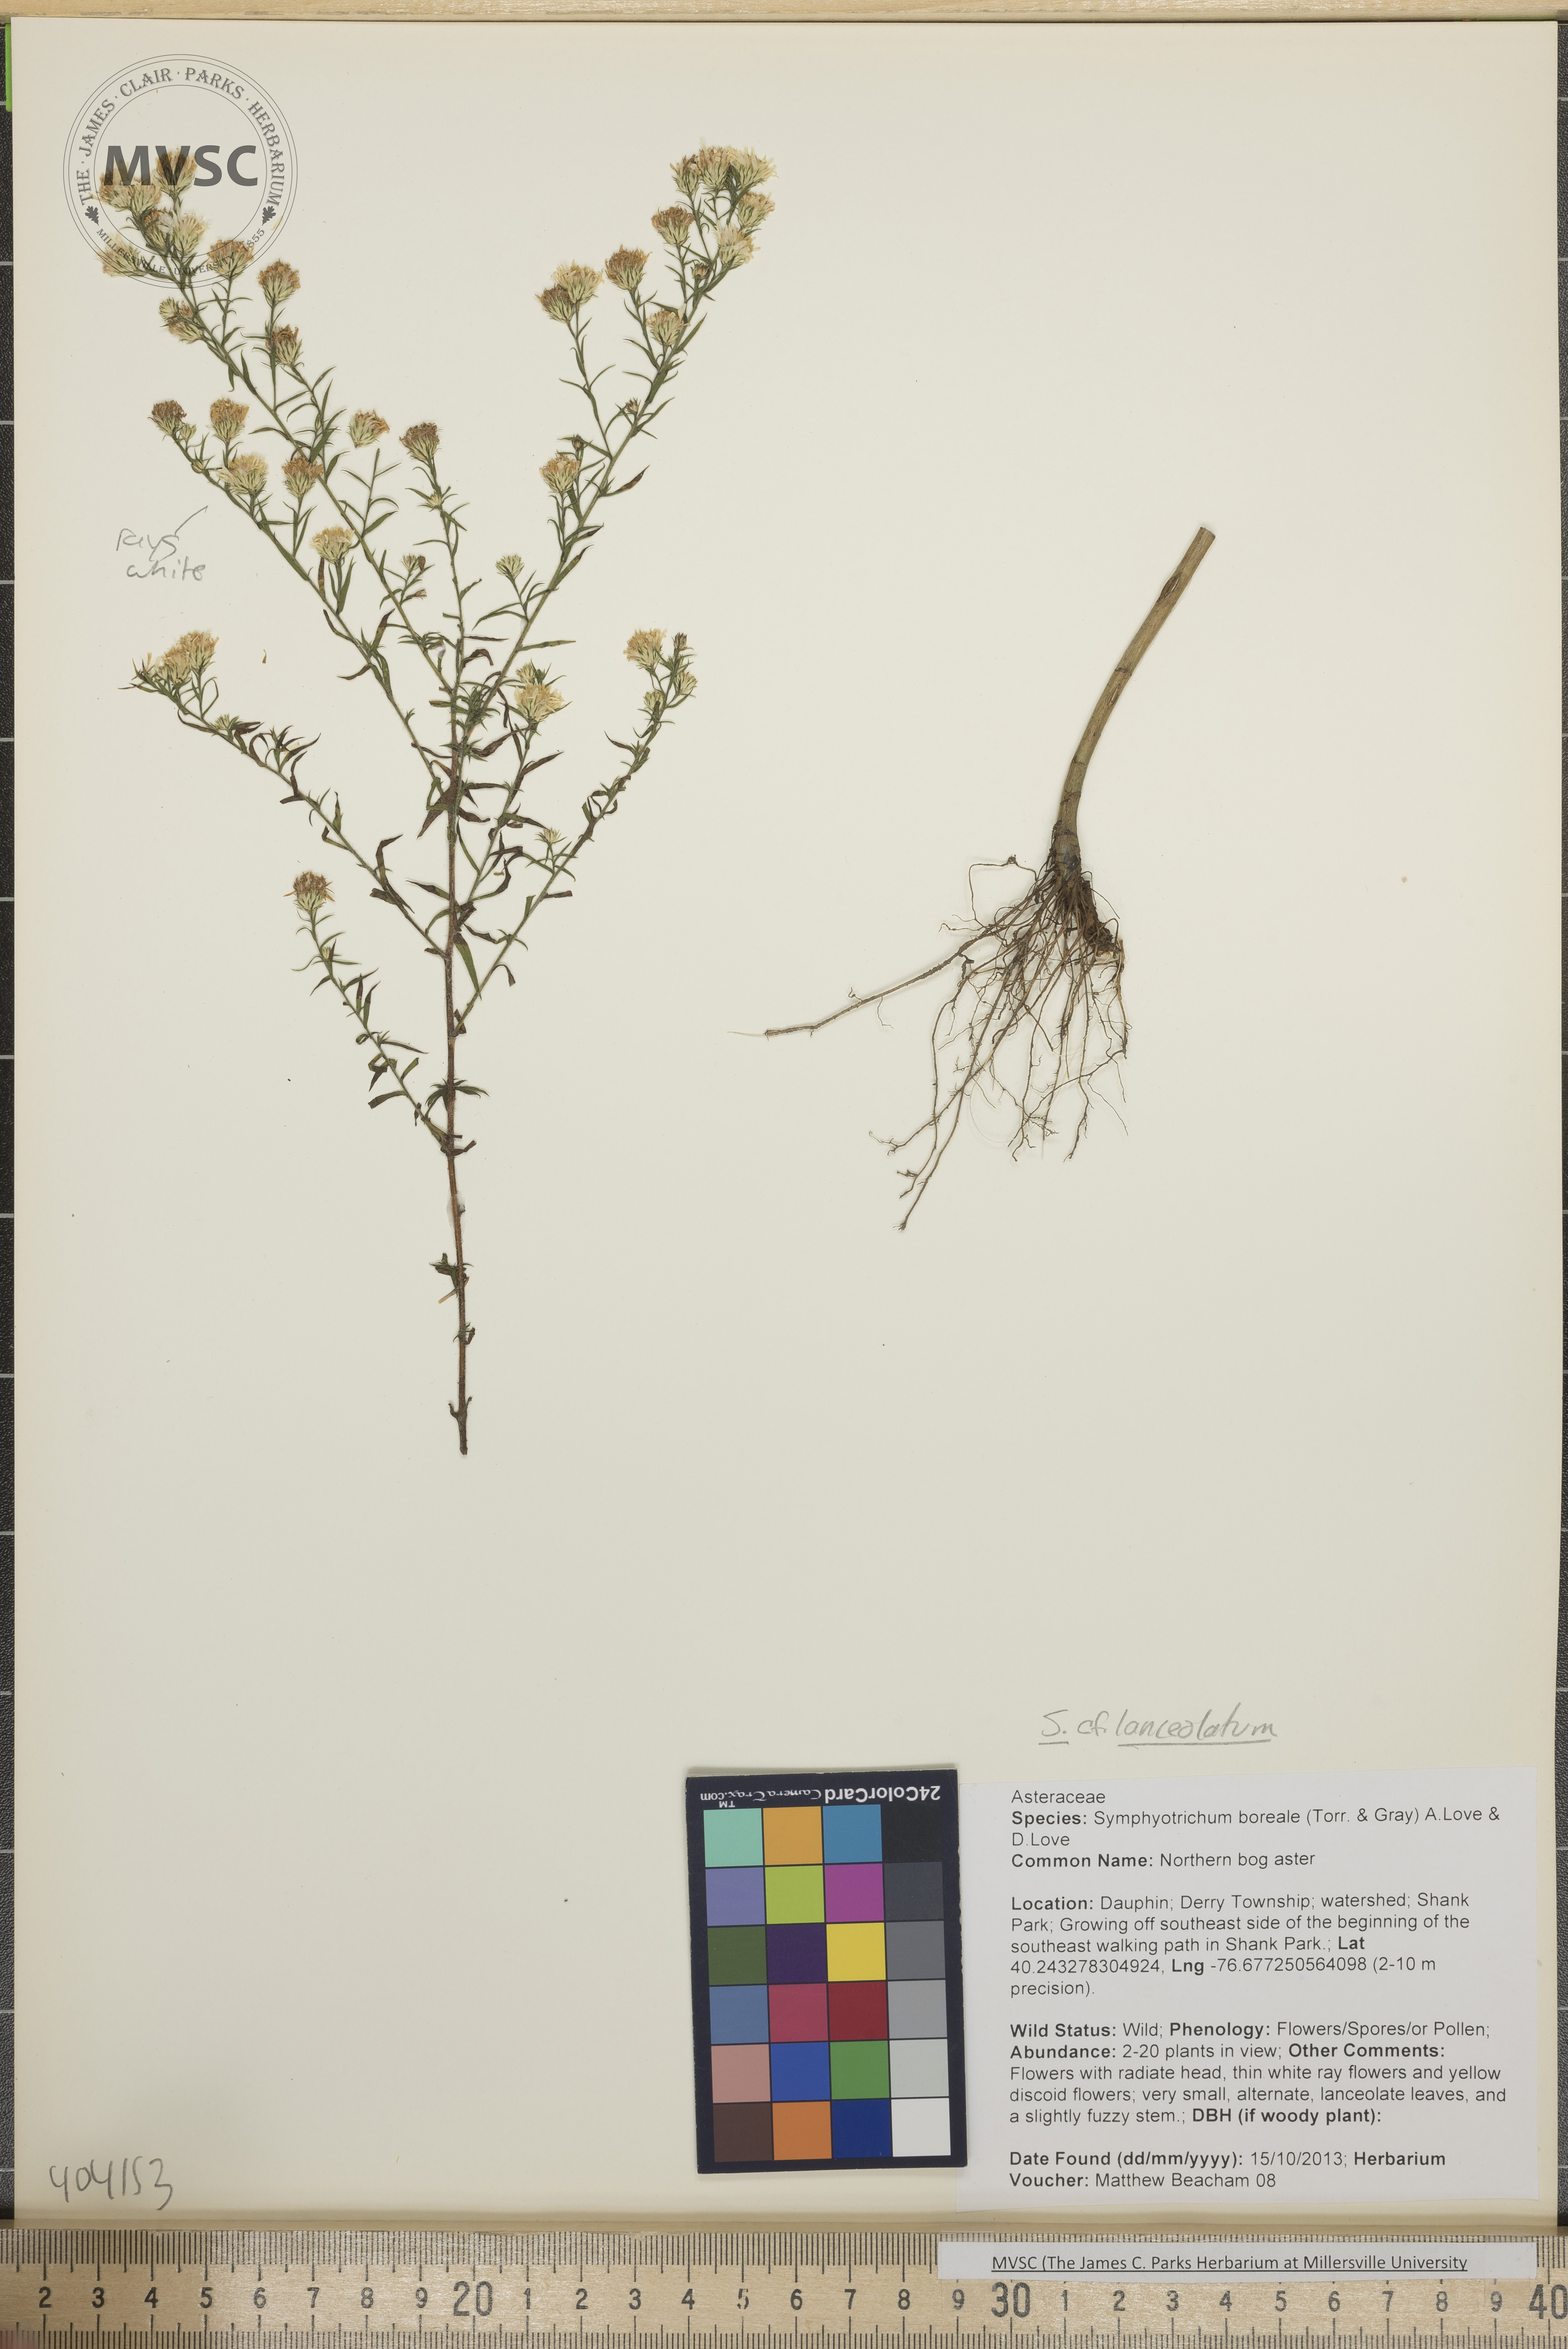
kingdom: Plantae
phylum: Tracheophyta
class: Magnoliopsida
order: Asterales
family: Asteraceae
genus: Symphyotrichum
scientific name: Symphyotrichum lanceolatum
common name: Aster
